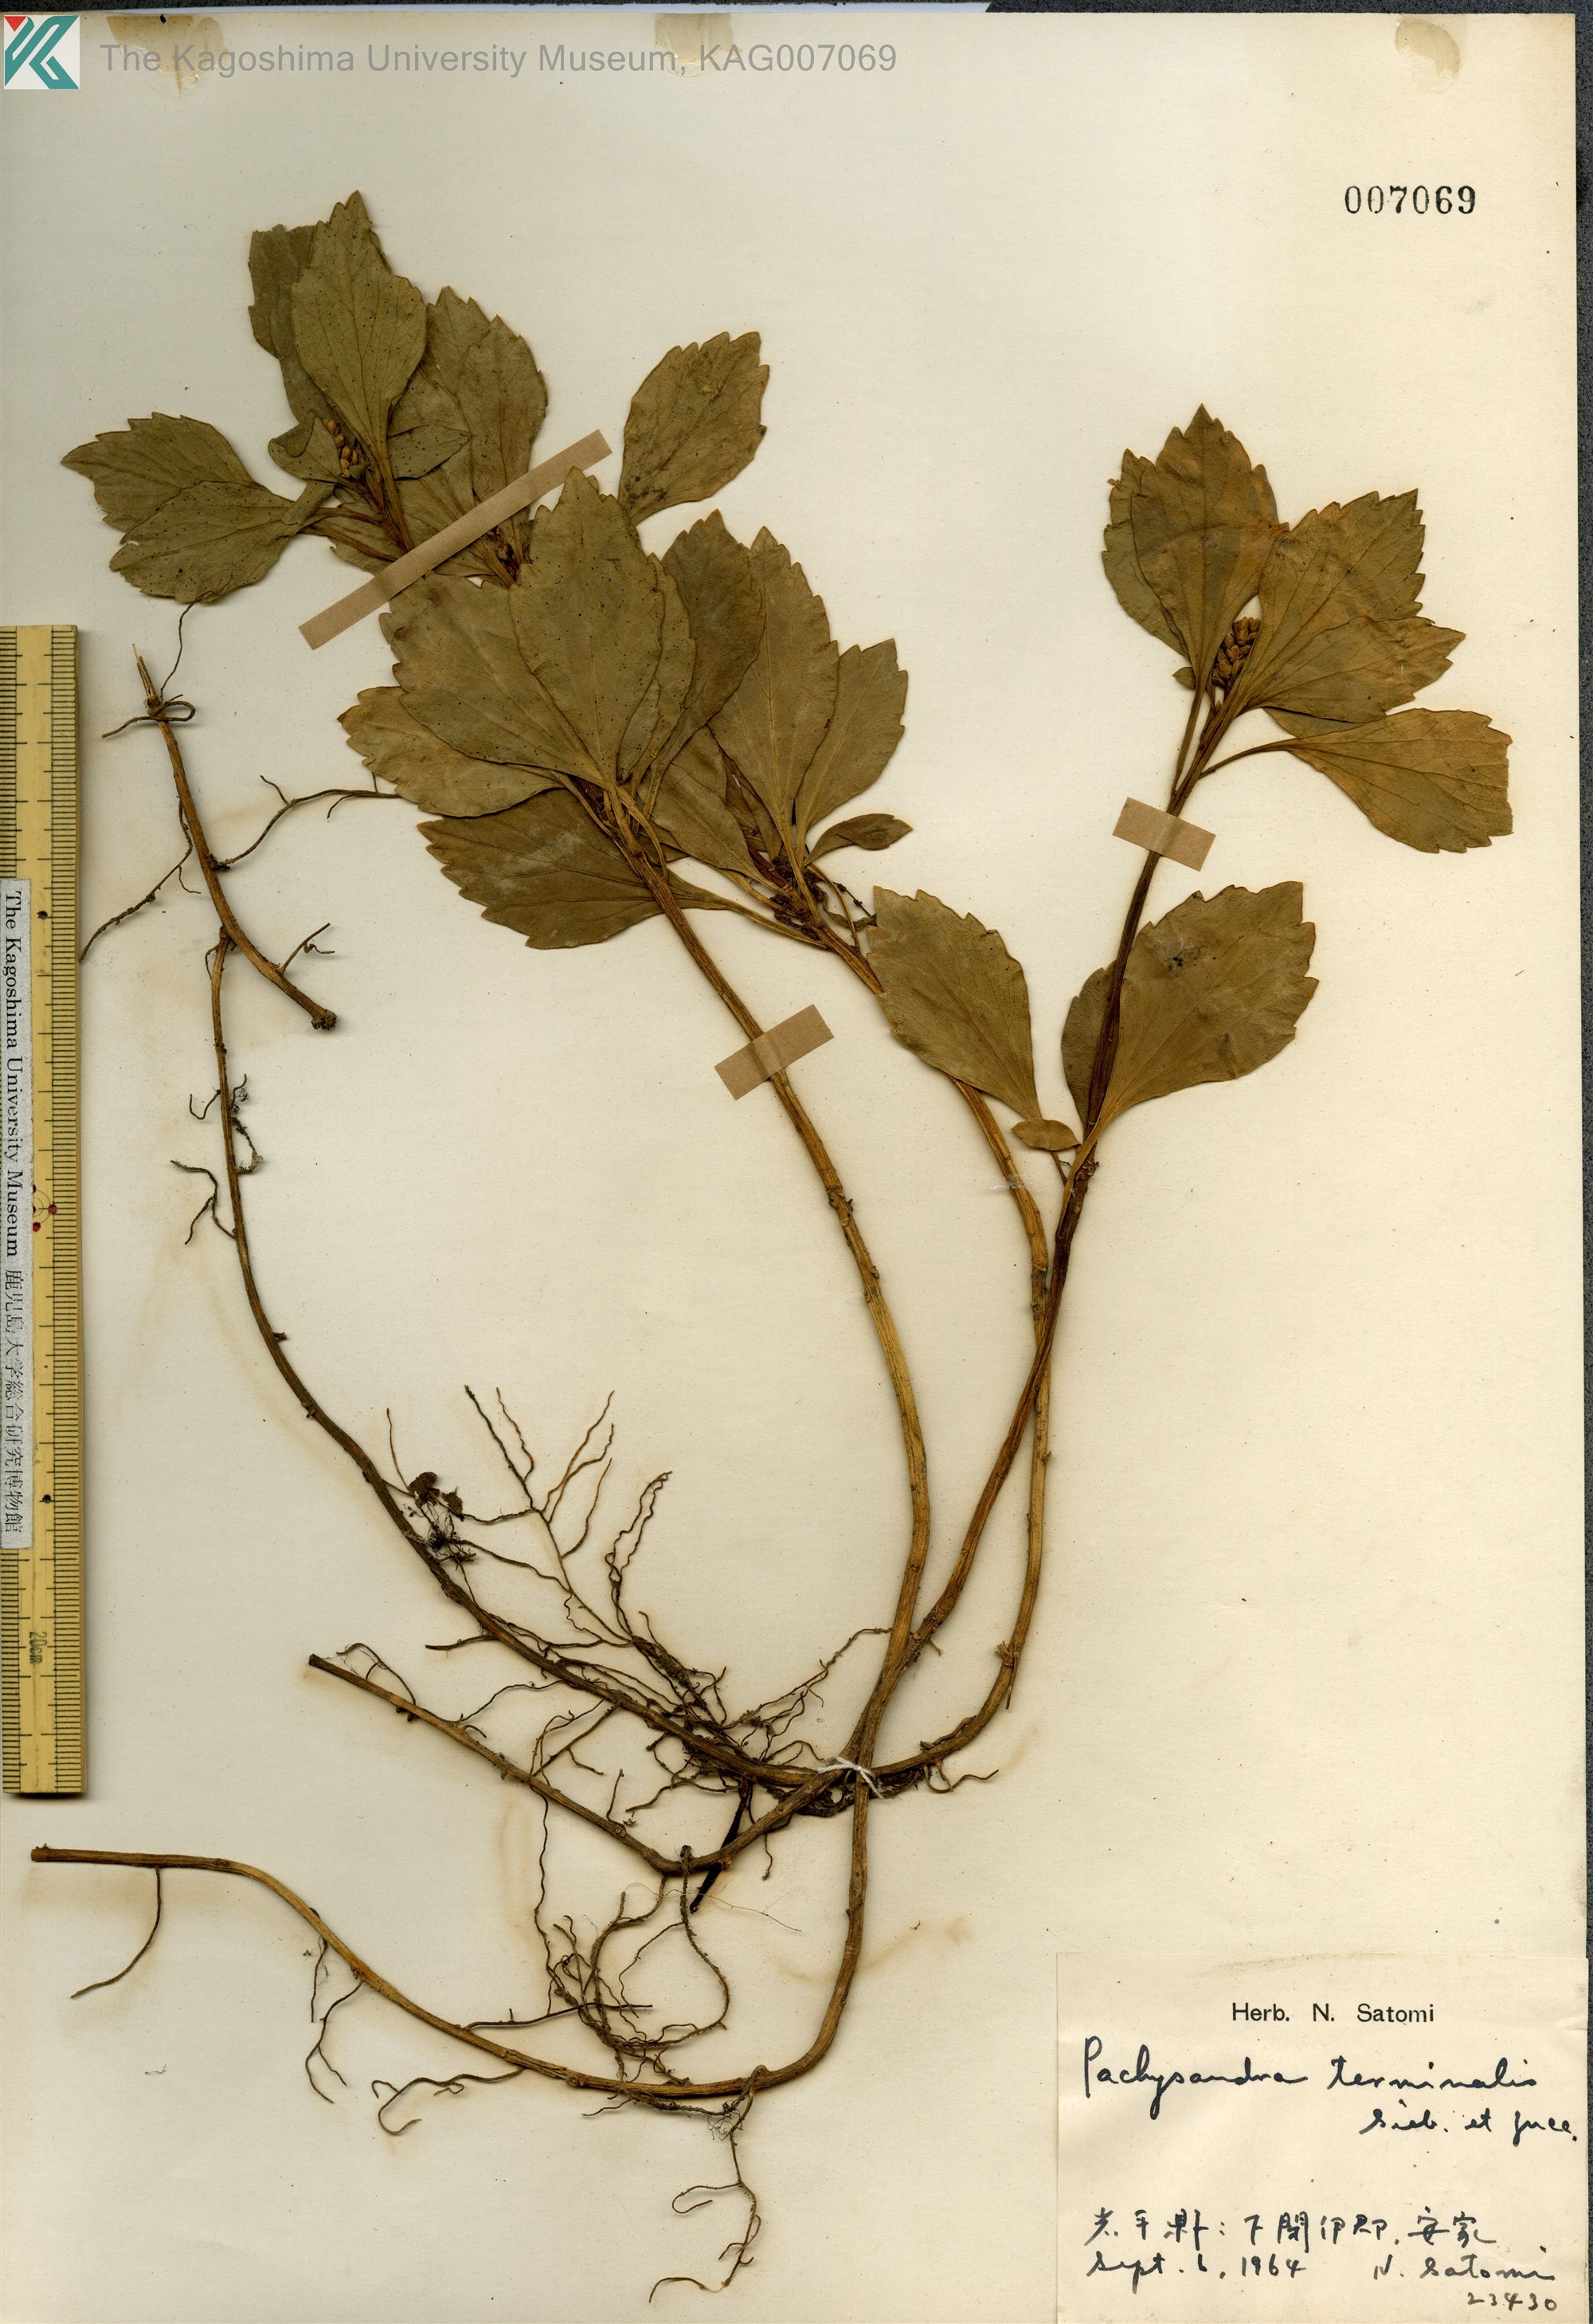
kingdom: Plantae
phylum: Tracheophyta
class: Magnoliopsida
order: Buxales
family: Buxaceae
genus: Pachysandra
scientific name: Pachysandra terminalis
